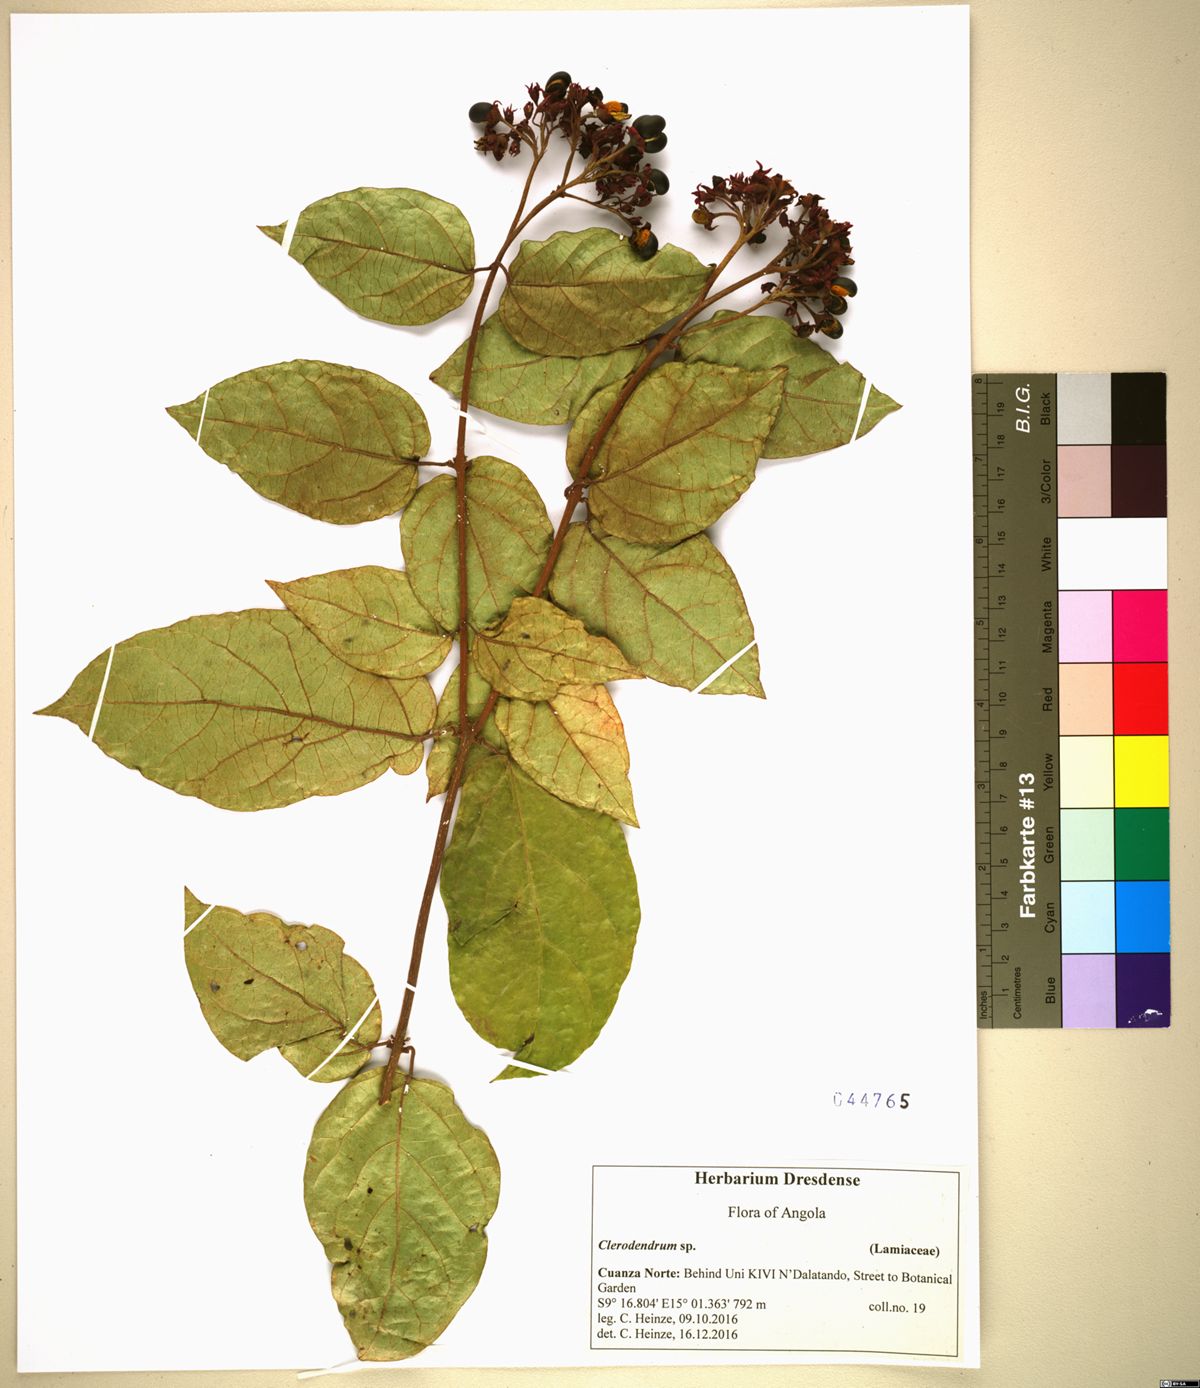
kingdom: Plantae
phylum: Tracheophyta
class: Magnoliopsida
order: Lamiales
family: Lamiaceae
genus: Clerodendrum
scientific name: Clerodendrum
